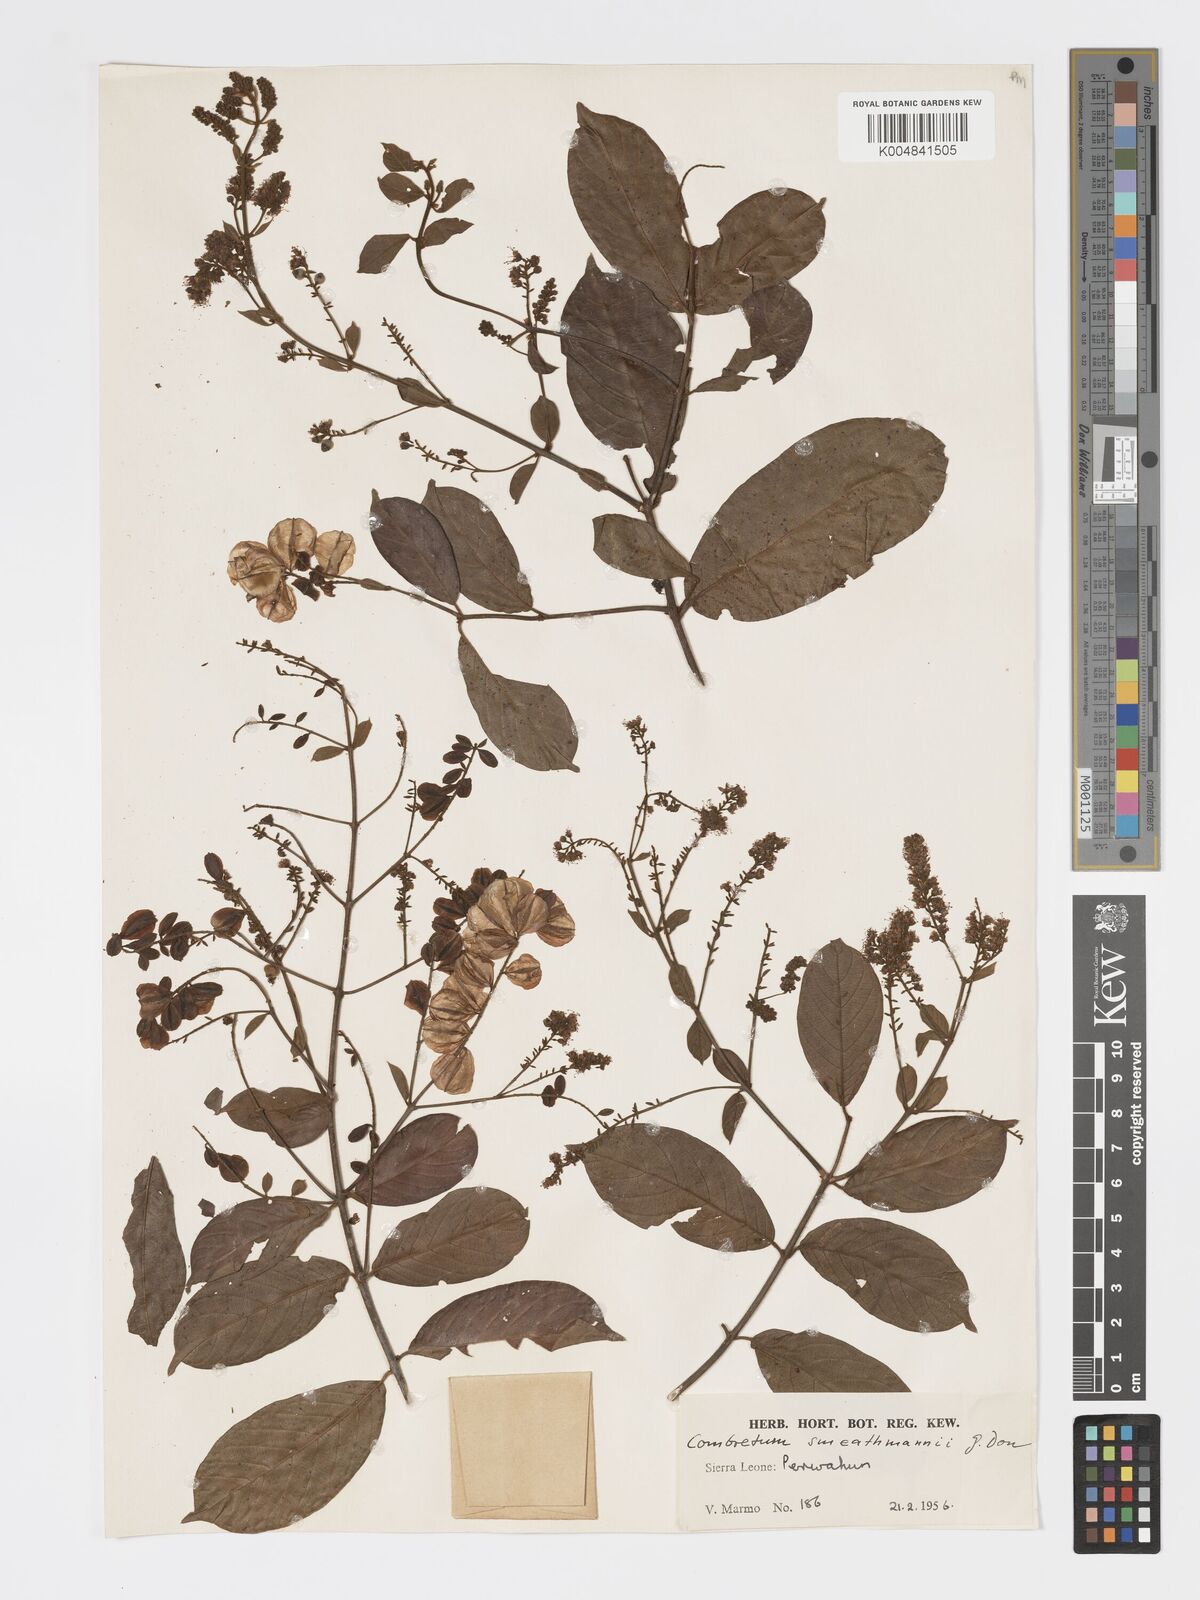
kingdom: Plantae
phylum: Tracheophyta
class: Magnoliopsida
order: Myrtales
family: Combretaceae
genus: Combretum
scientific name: Combretum mucronatum
